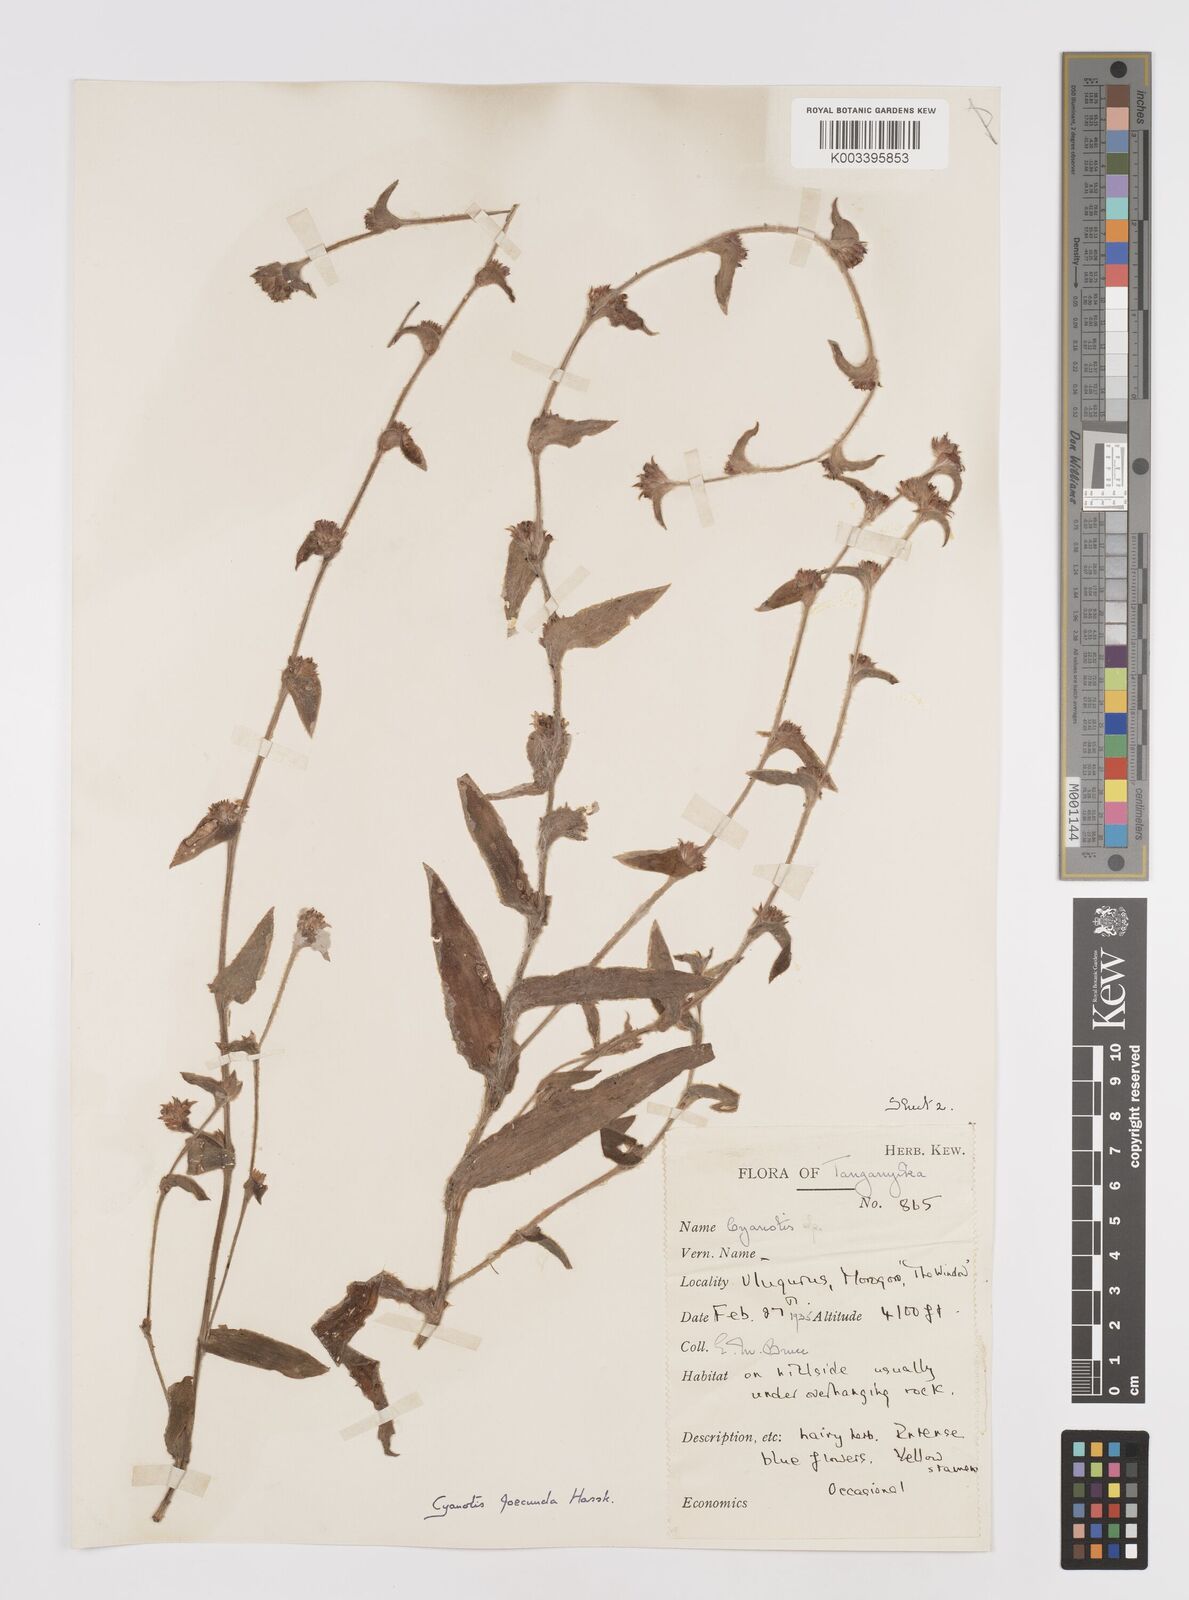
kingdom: Plantae
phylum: Tracheophyta
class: Liliopsida
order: Commelinales
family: Commelinaceae
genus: Cyanotis
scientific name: Cyanotis foecunda
